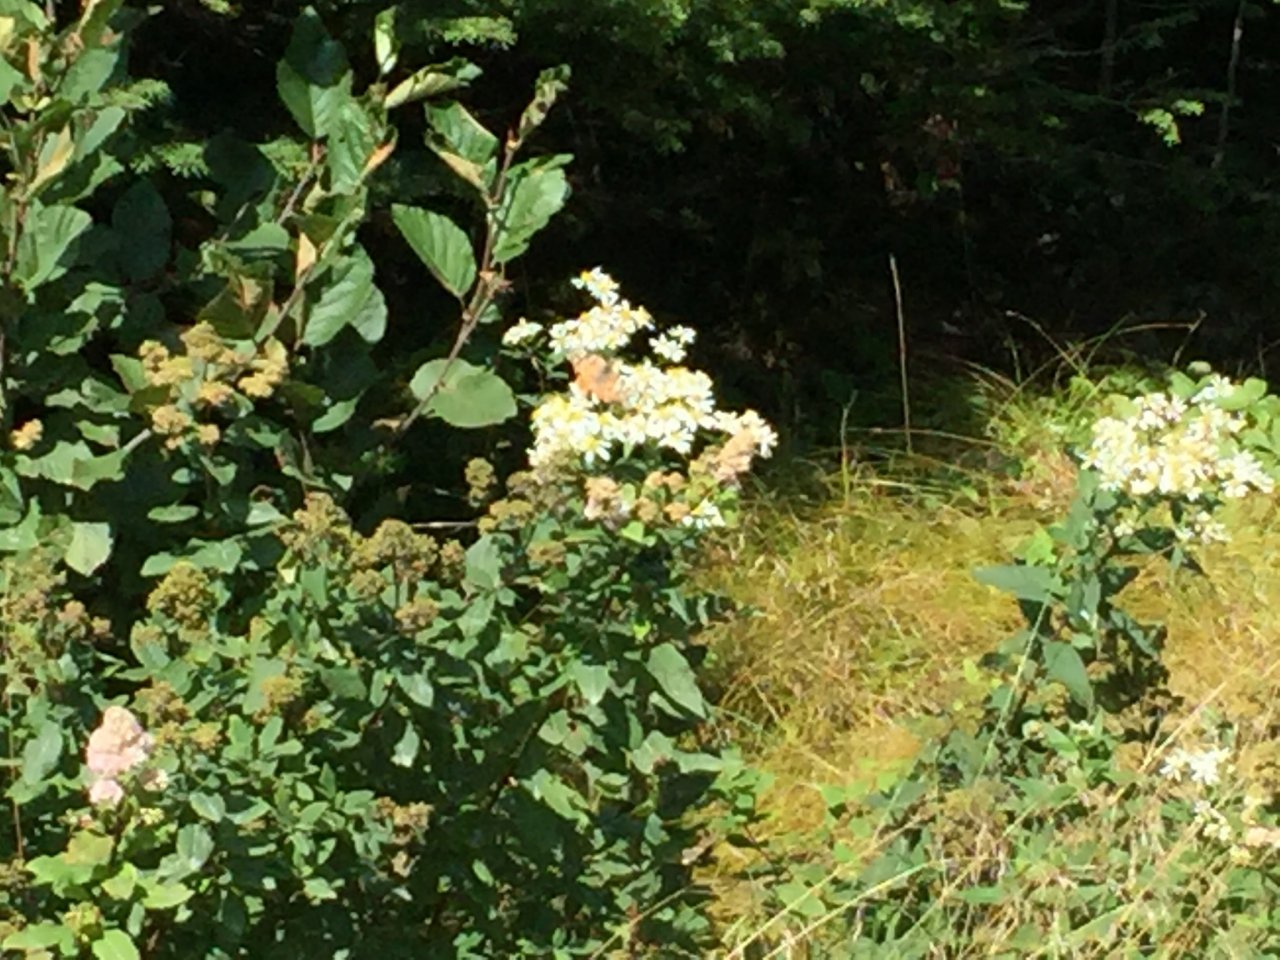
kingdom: Animalia
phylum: Arthropoda
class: Insecta
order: Lepidoptera
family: Nymphalidae
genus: Vanessa
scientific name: Vanessa cardui
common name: Painted Lady
